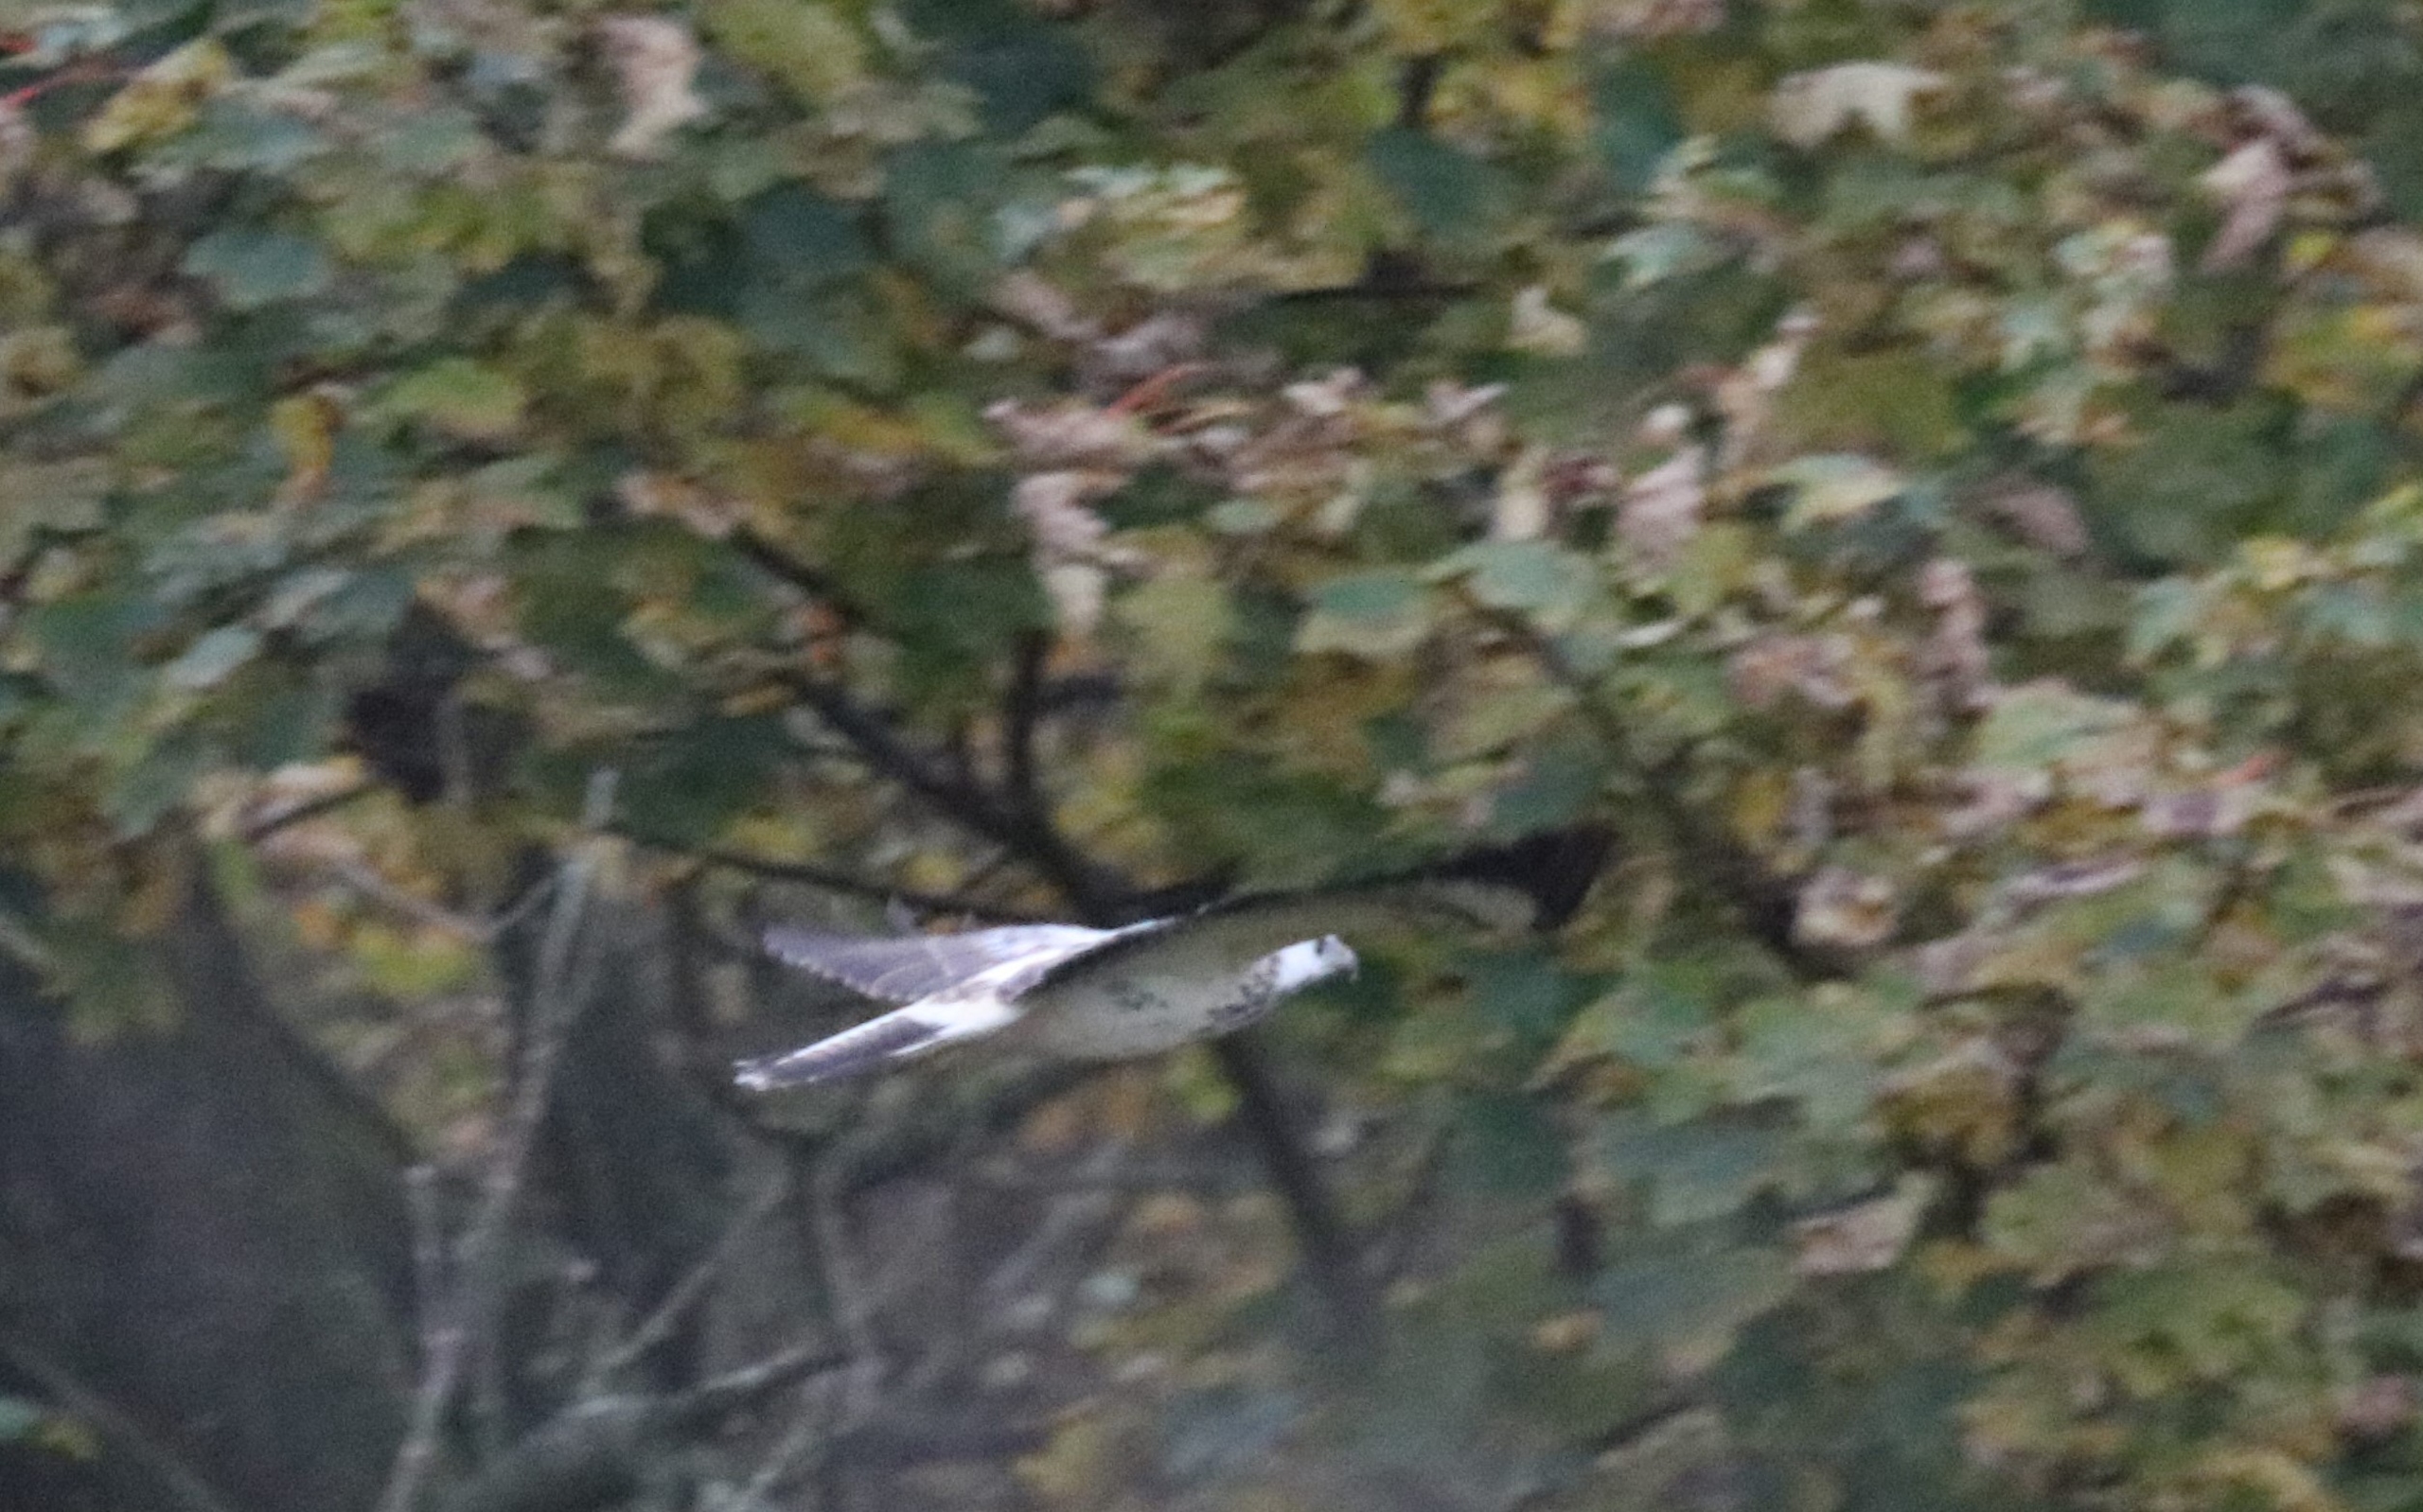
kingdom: Animalia
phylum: Chordata
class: Aves
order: Accipitriformes
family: Accipitridae
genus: Buteo
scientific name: Buteo buteo
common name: Musvåge
